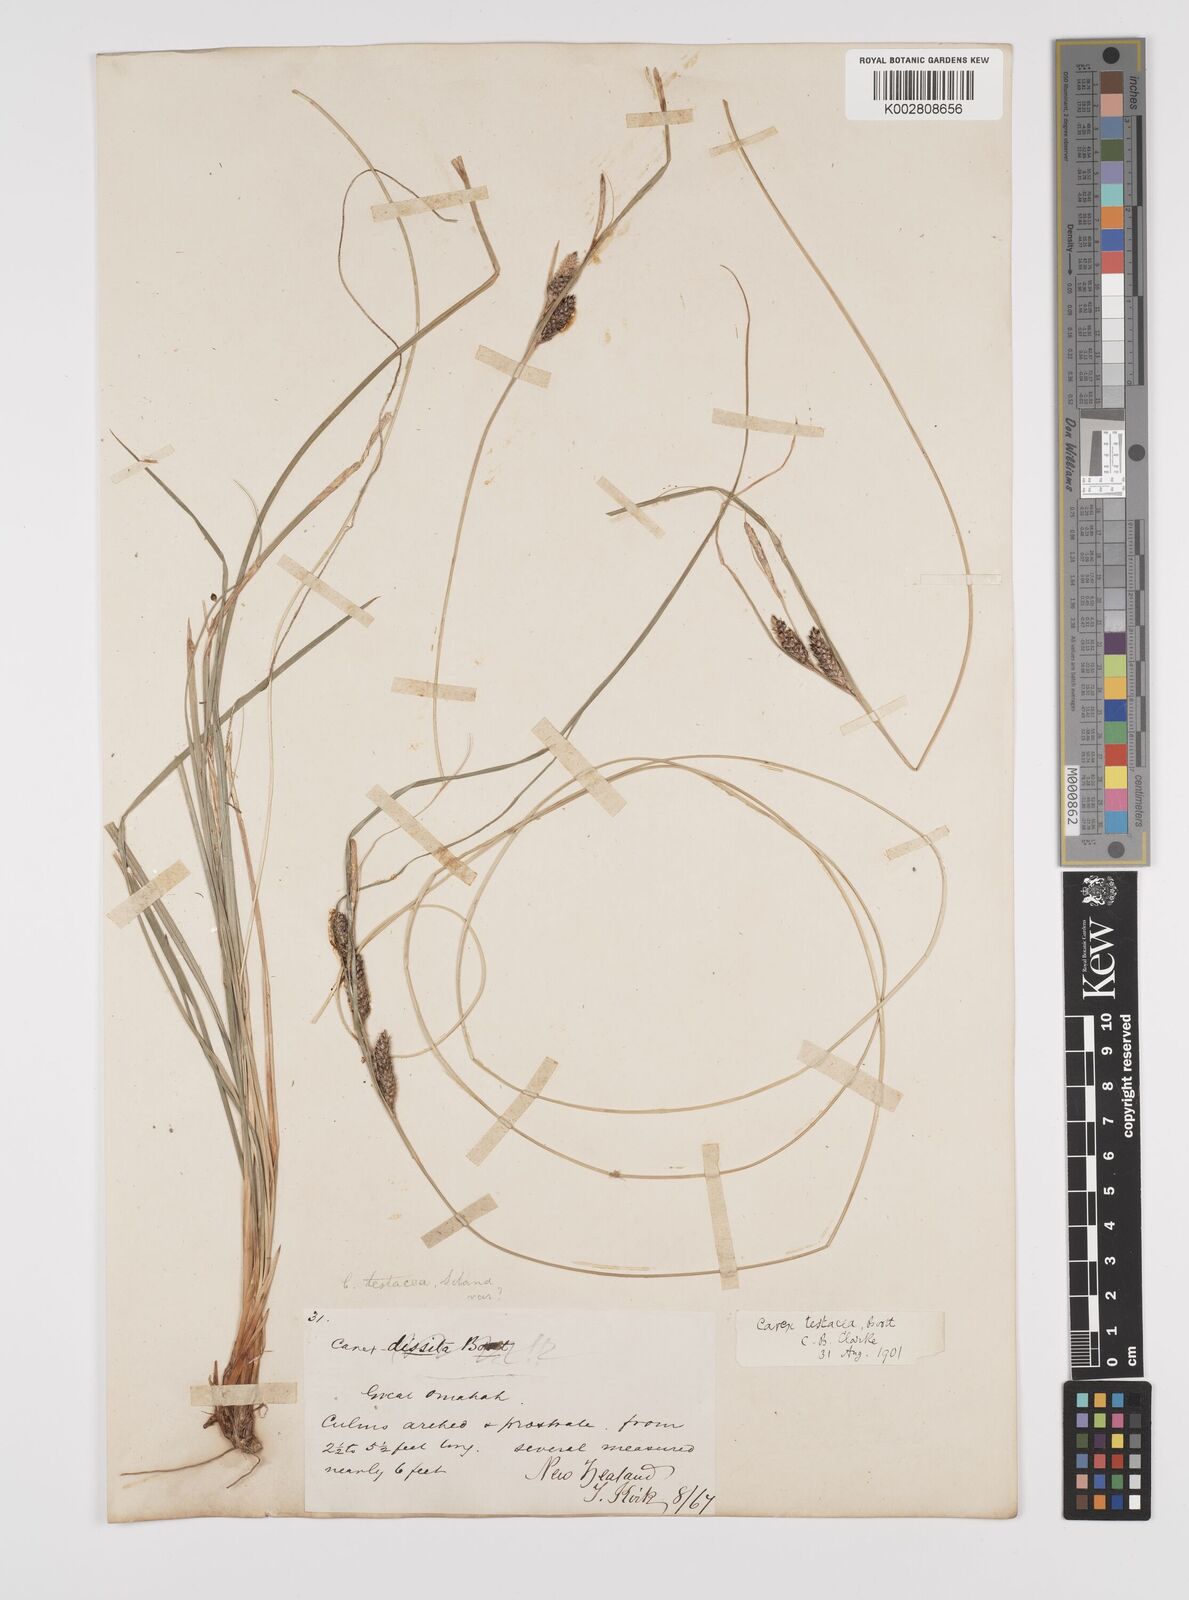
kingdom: Plantae
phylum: Tracheophyta
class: Liliopsida
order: Poales
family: Cyperaceae
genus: Carex
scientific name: Carex testacea
